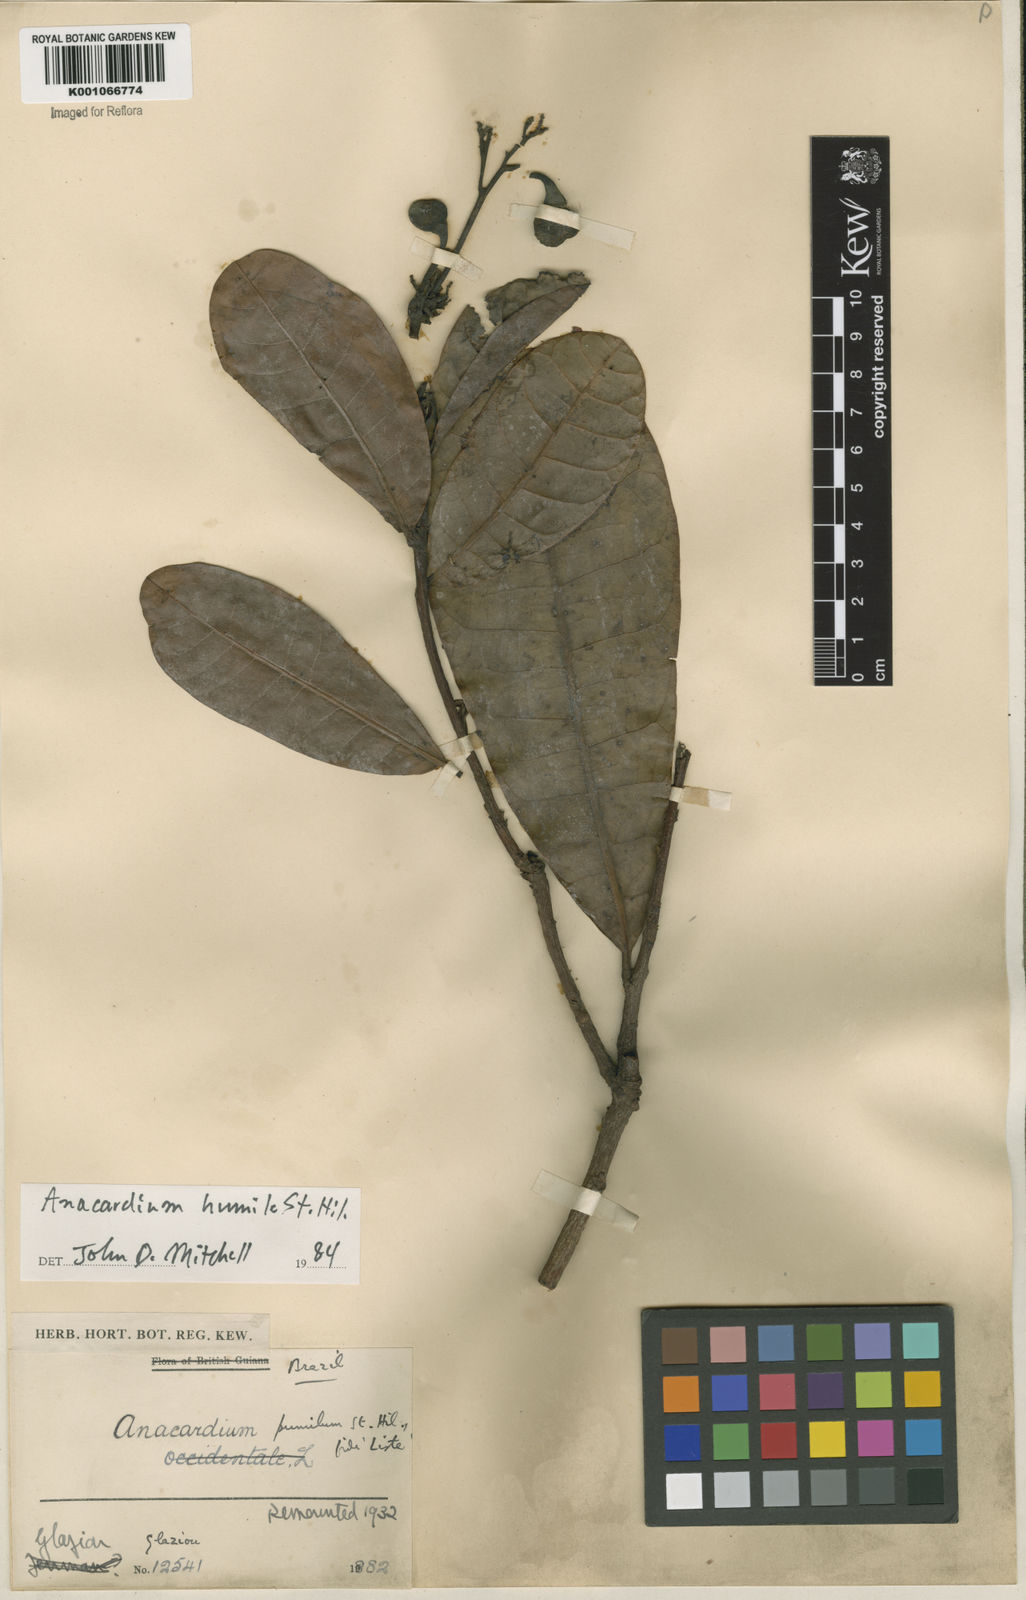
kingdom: Plantae
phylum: Tracheophyta
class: Magnoliopsida
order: Sapindales
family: Anacardiaceae
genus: Anacardium
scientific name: Anacardium humile
